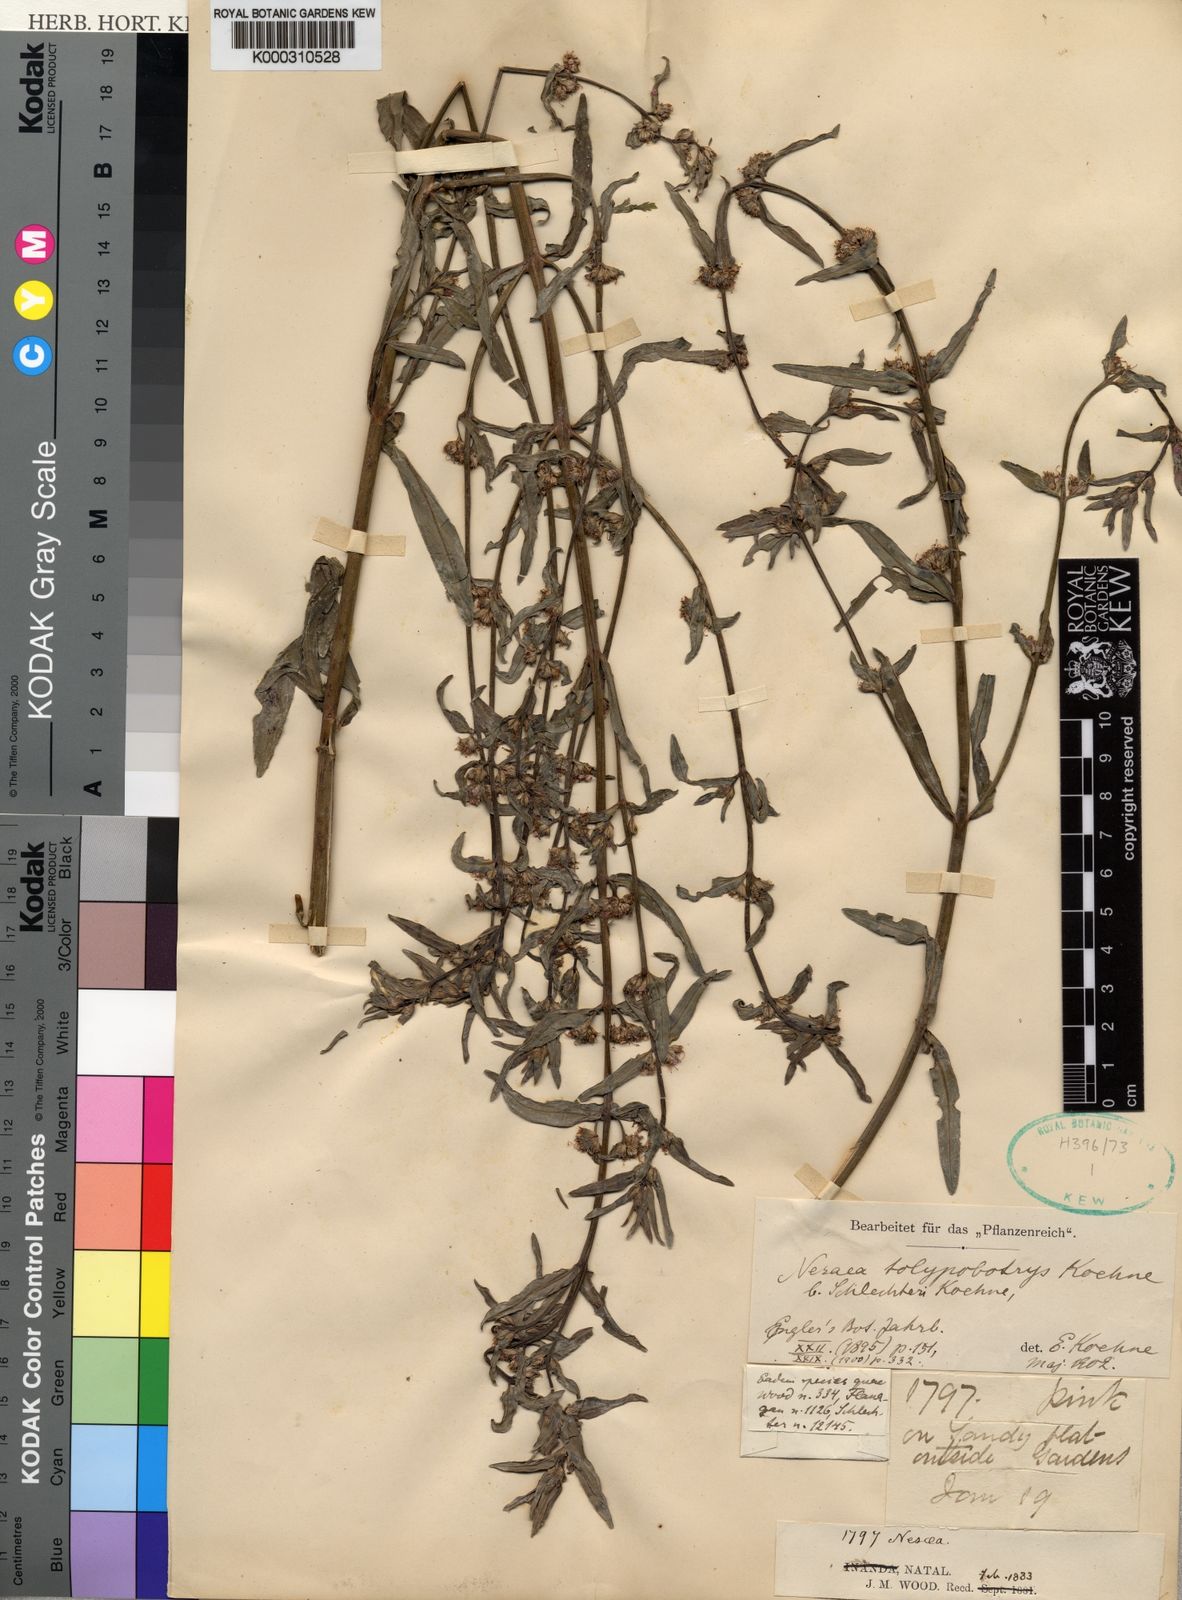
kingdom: Plantae
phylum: Tracheophyta
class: Magnoliopsida
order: Myrtales
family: Lythraceae
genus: Nesaea
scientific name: Nesaea
